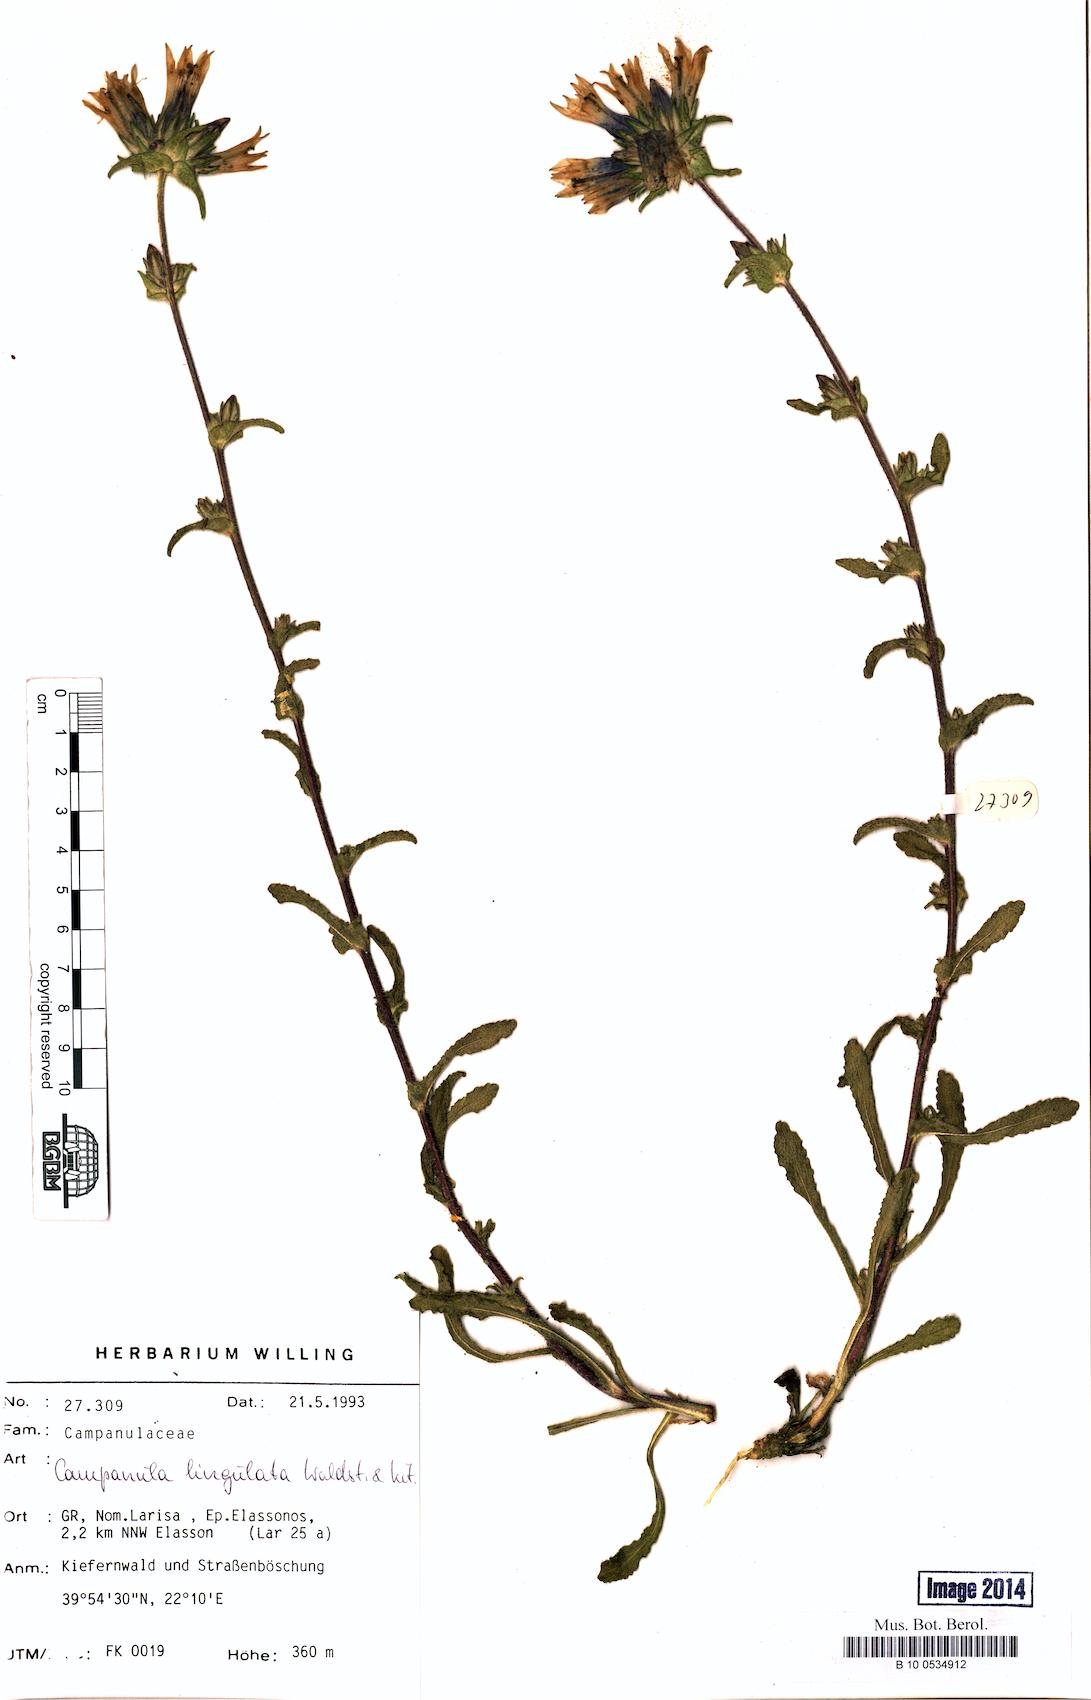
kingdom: Plantae
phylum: Tracheophyta
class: Magnoliopsida
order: Asterales
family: Campanulaceae
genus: Campanula
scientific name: Campanula lingulata
